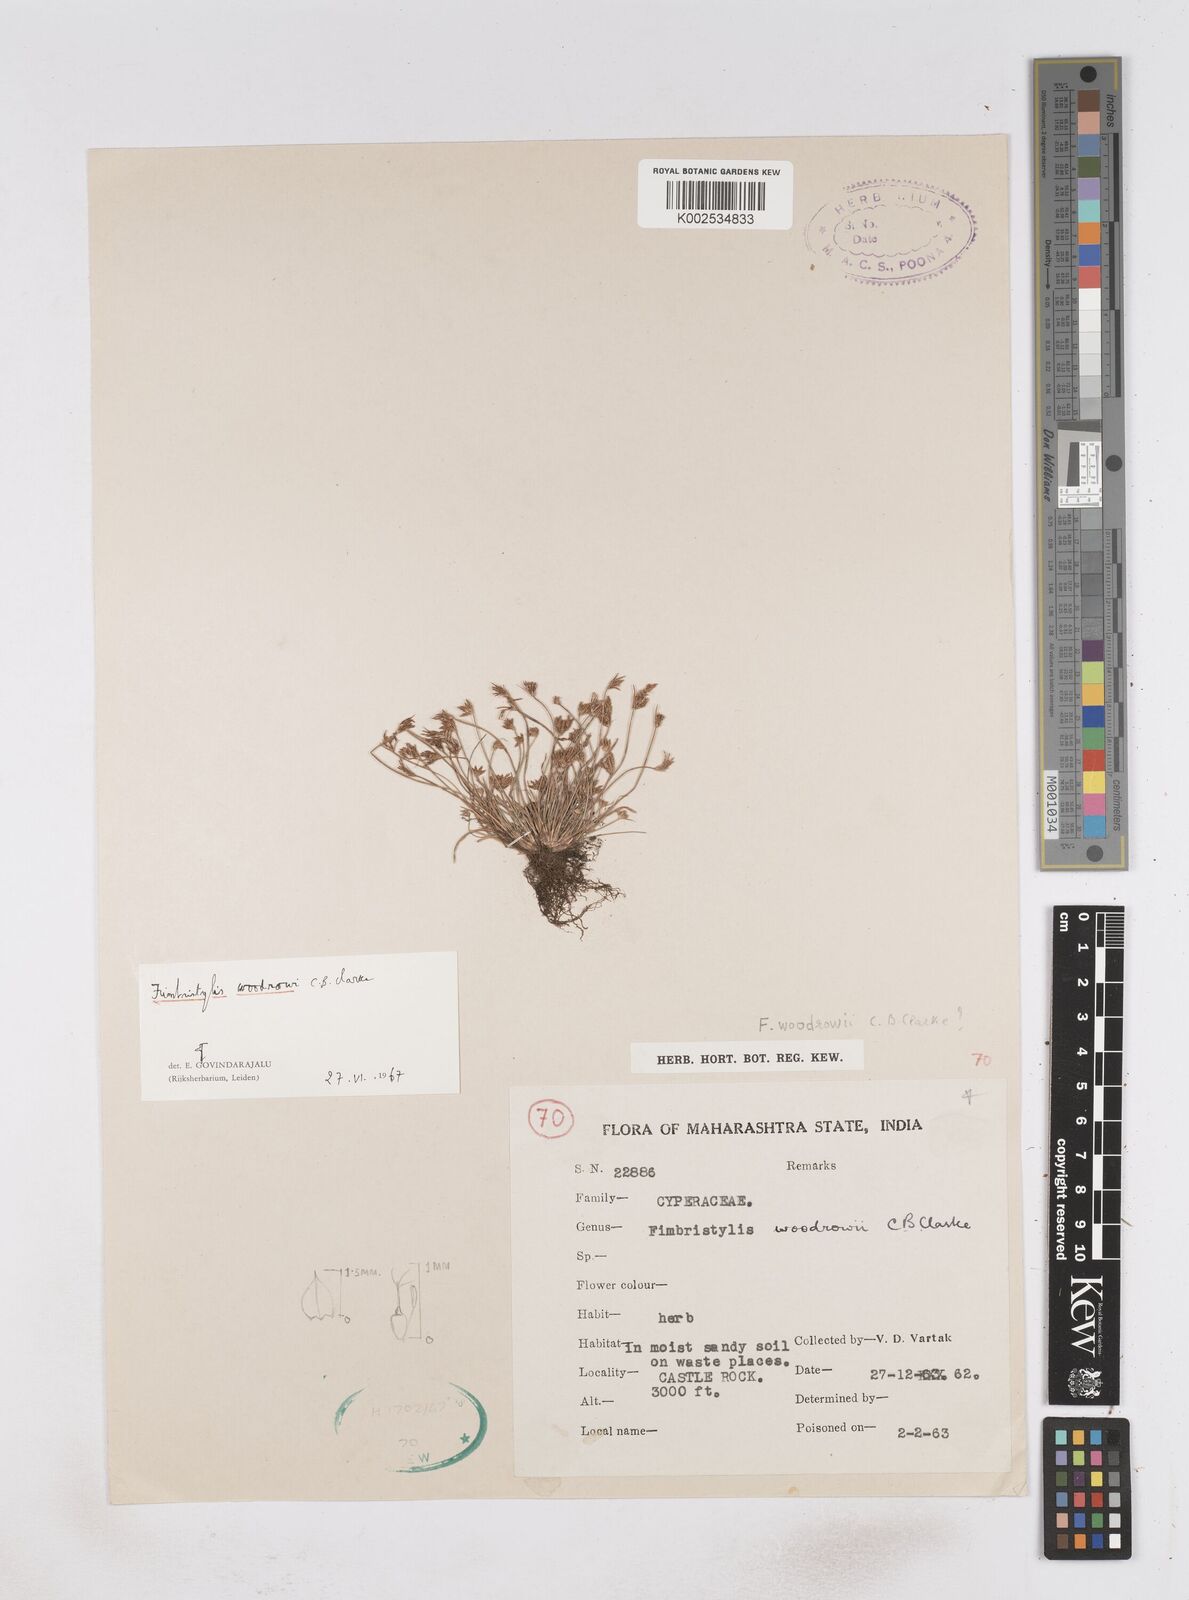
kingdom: Plantae
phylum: Tracheophyta
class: Liliopsida
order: Poales
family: Cyperaceae
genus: Fimbristylis
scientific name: Fimbristylis woodrowii
